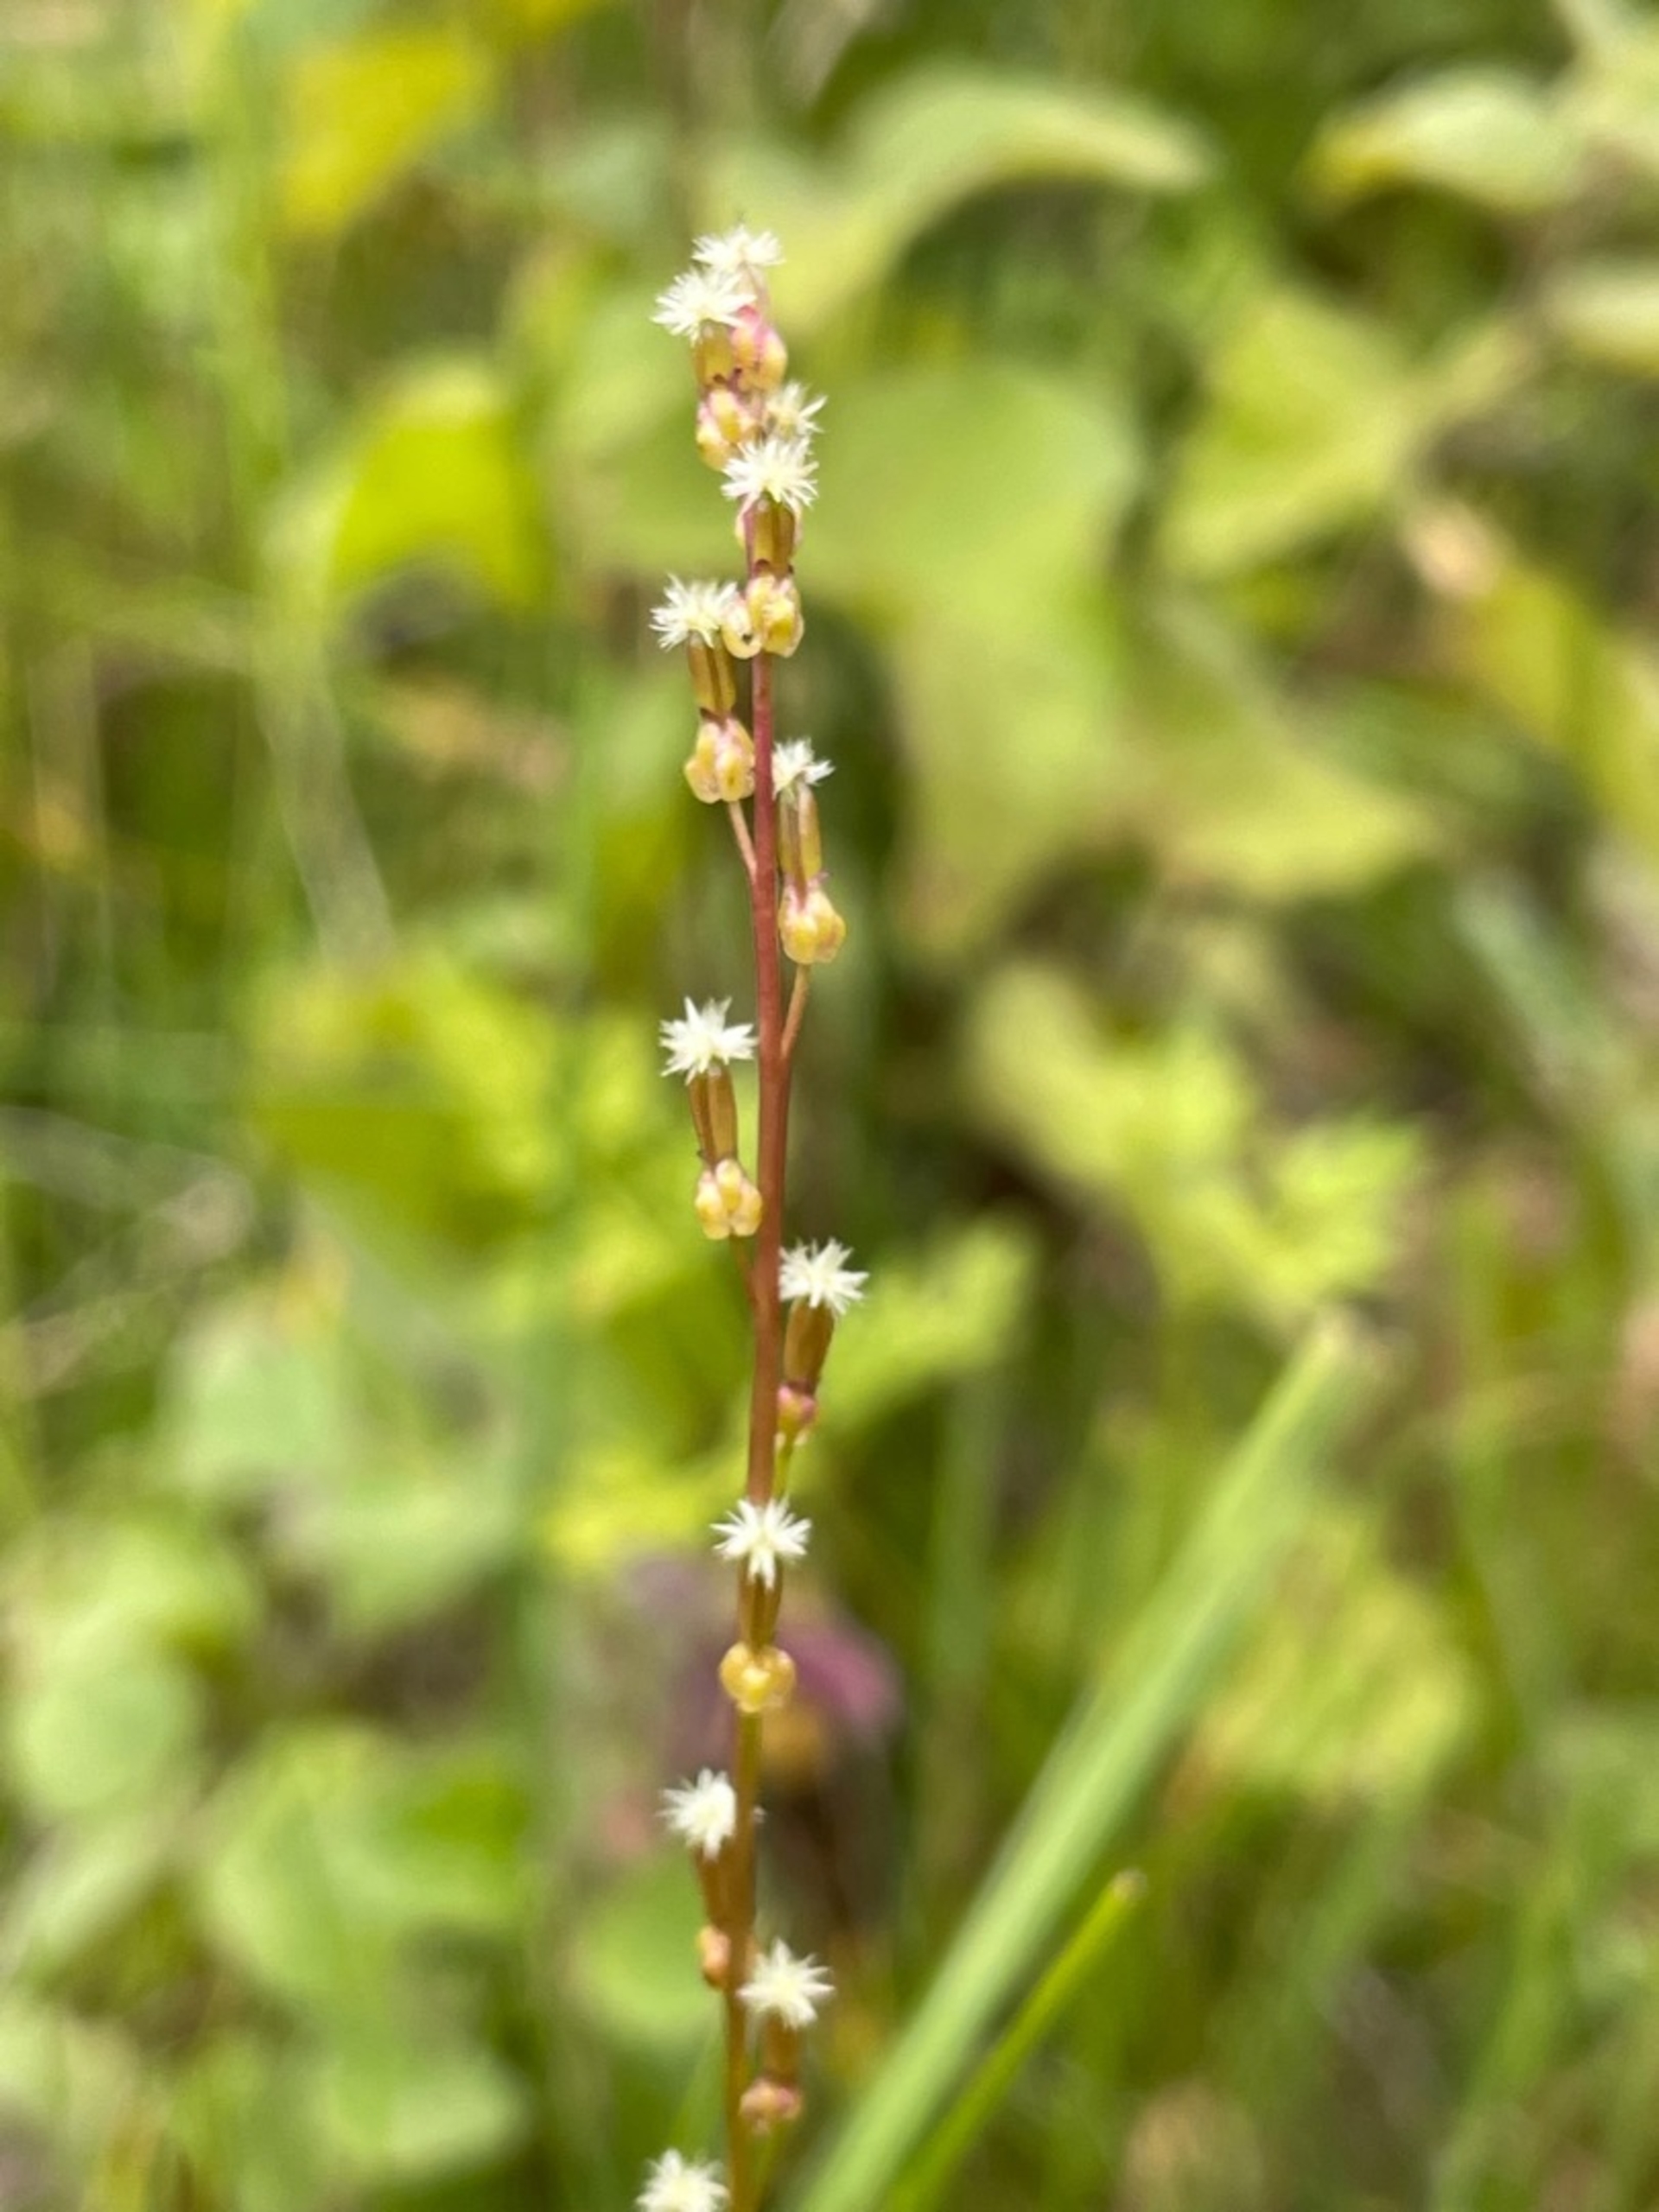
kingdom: Plantae
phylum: Tracheophyta
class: Liliopsida
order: Alismatales
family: Juncaginaceae
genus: Triglochin
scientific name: Triglochin palustris
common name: Kær-trehage
